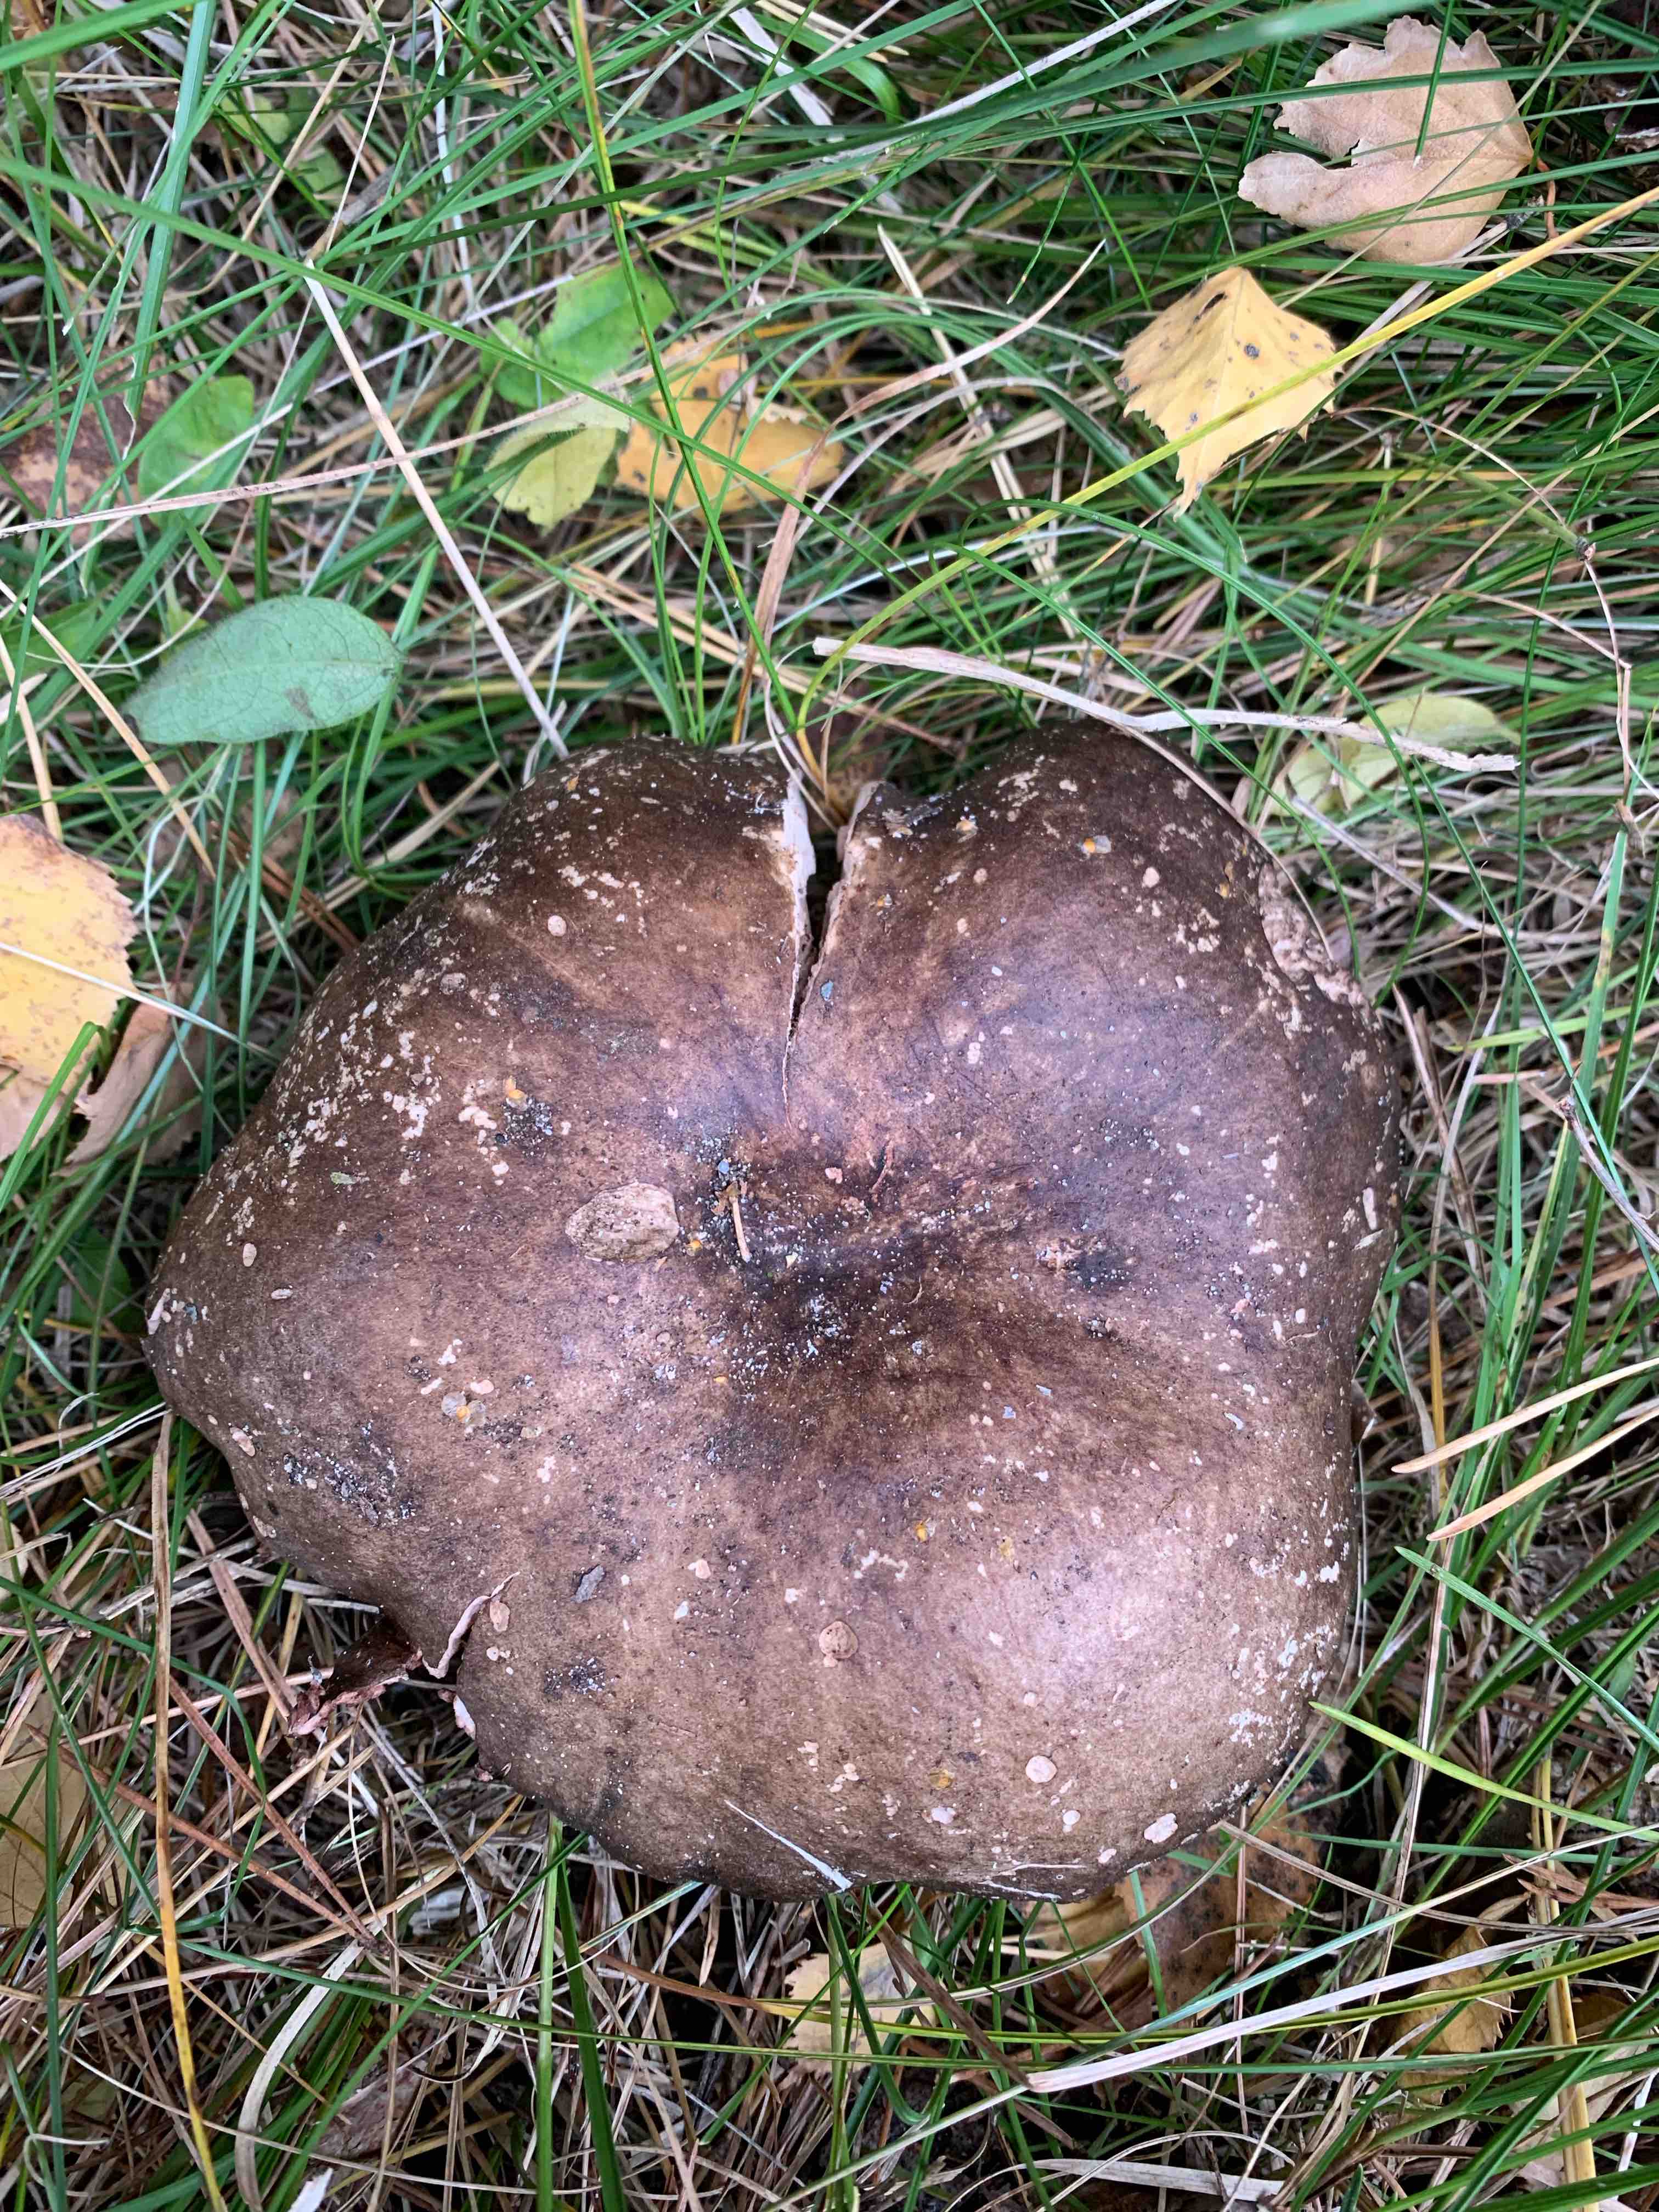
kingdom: Fungi
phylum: Basidiomycota
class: Agaricomycetes
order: Russulales
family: Russulaceae
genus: Russula
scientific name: Russula adusta
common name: sværtende skørhat
